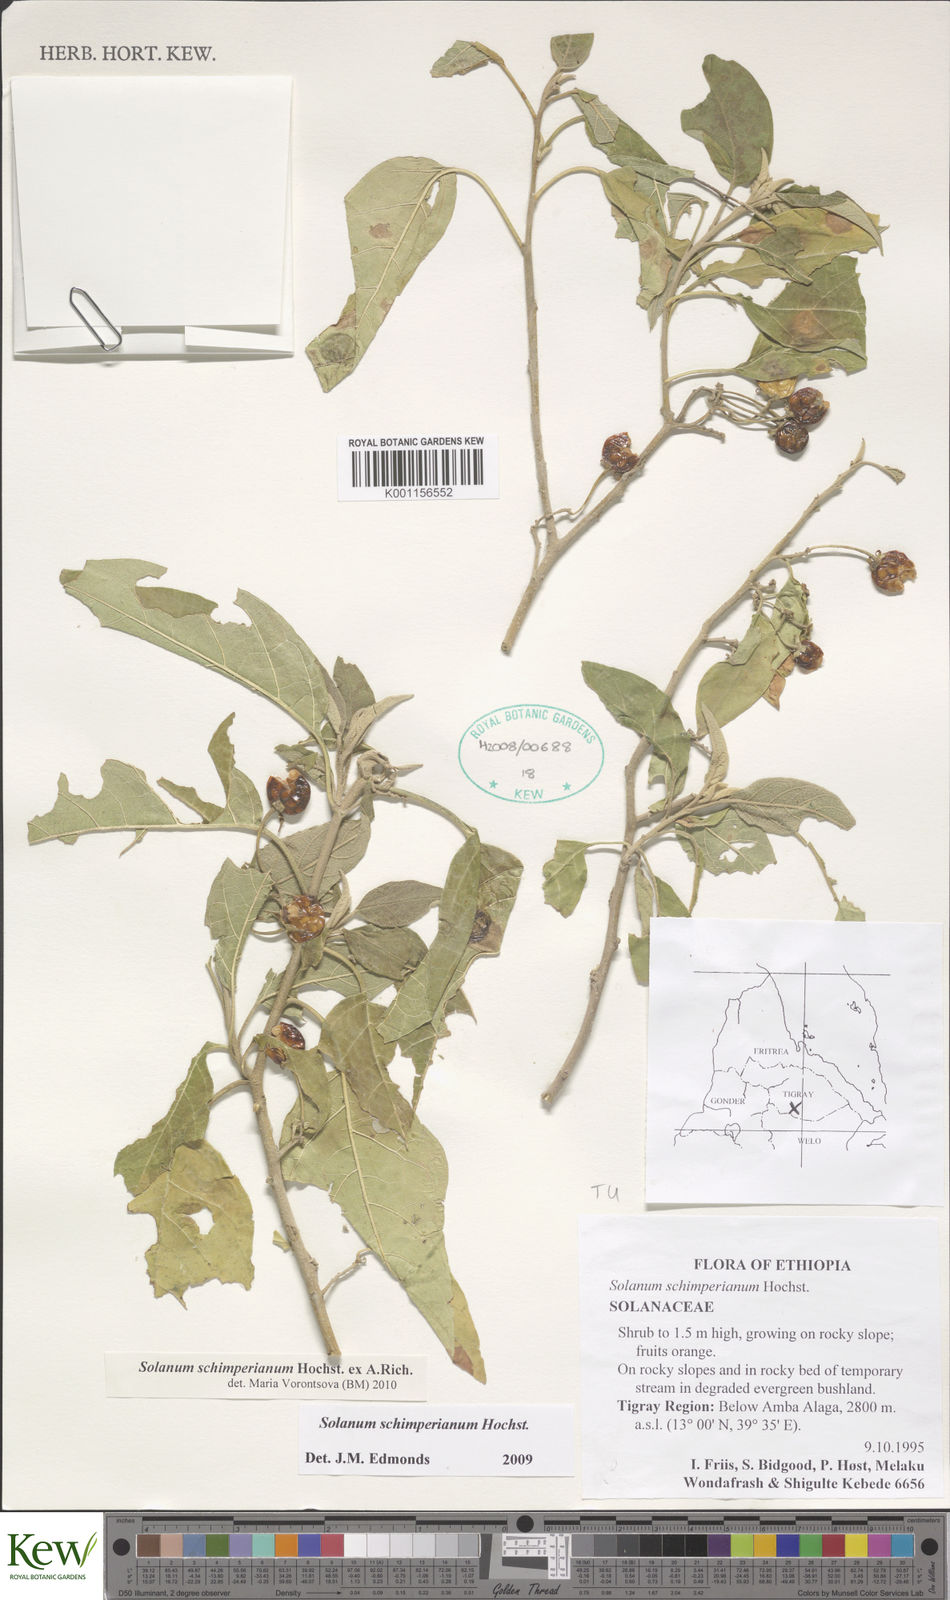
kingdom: Plantae
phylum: Tracheophyta
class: Magnoliopsida
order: Solanales
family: Solanaceae
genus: Solanum
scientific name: Solanum
